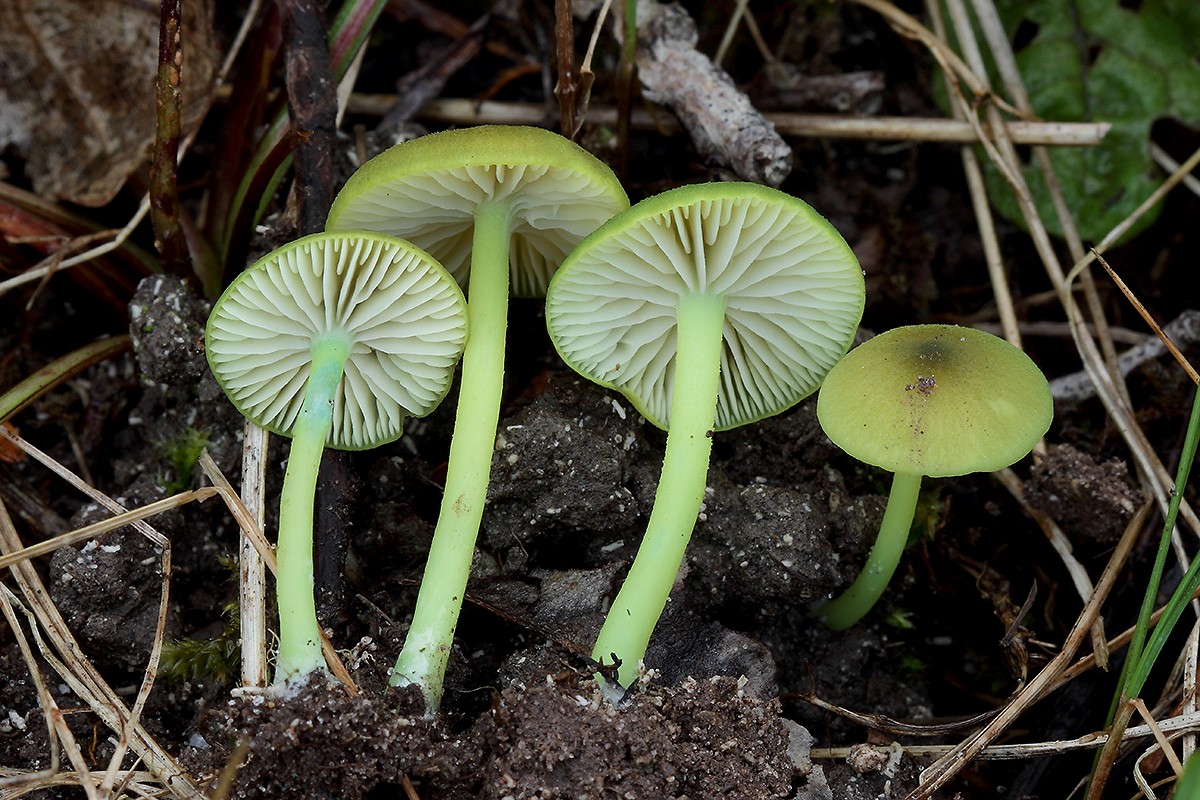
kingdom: Fungi
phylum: Basidiomycota
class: Agaricomycetes
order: Agaricales
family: Entolomataceae
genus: Entoloma
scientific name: Entoloma incanum
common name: grøngul rødblad
